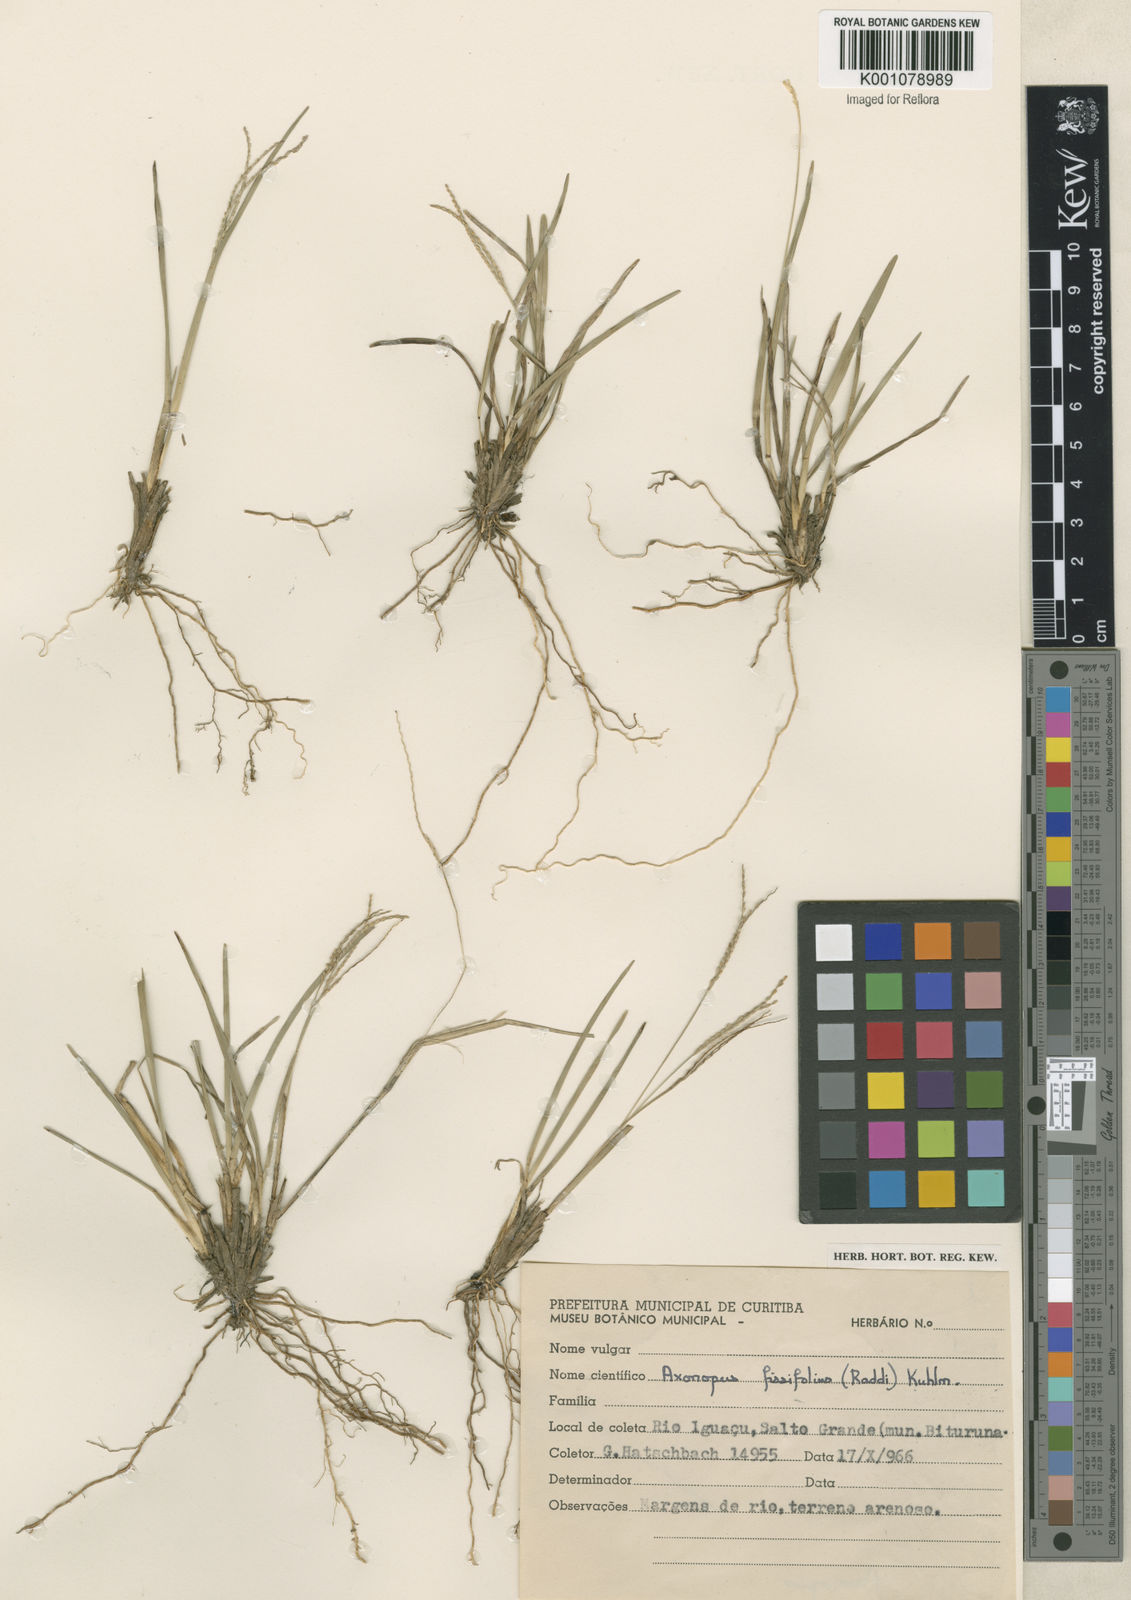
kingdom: Plantae
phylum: Tracheophyta
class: Liliopsida
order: Poales
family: Poaceae
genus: Axonopus
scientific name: Axonopus fissifolius
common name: Common carpetgrass
